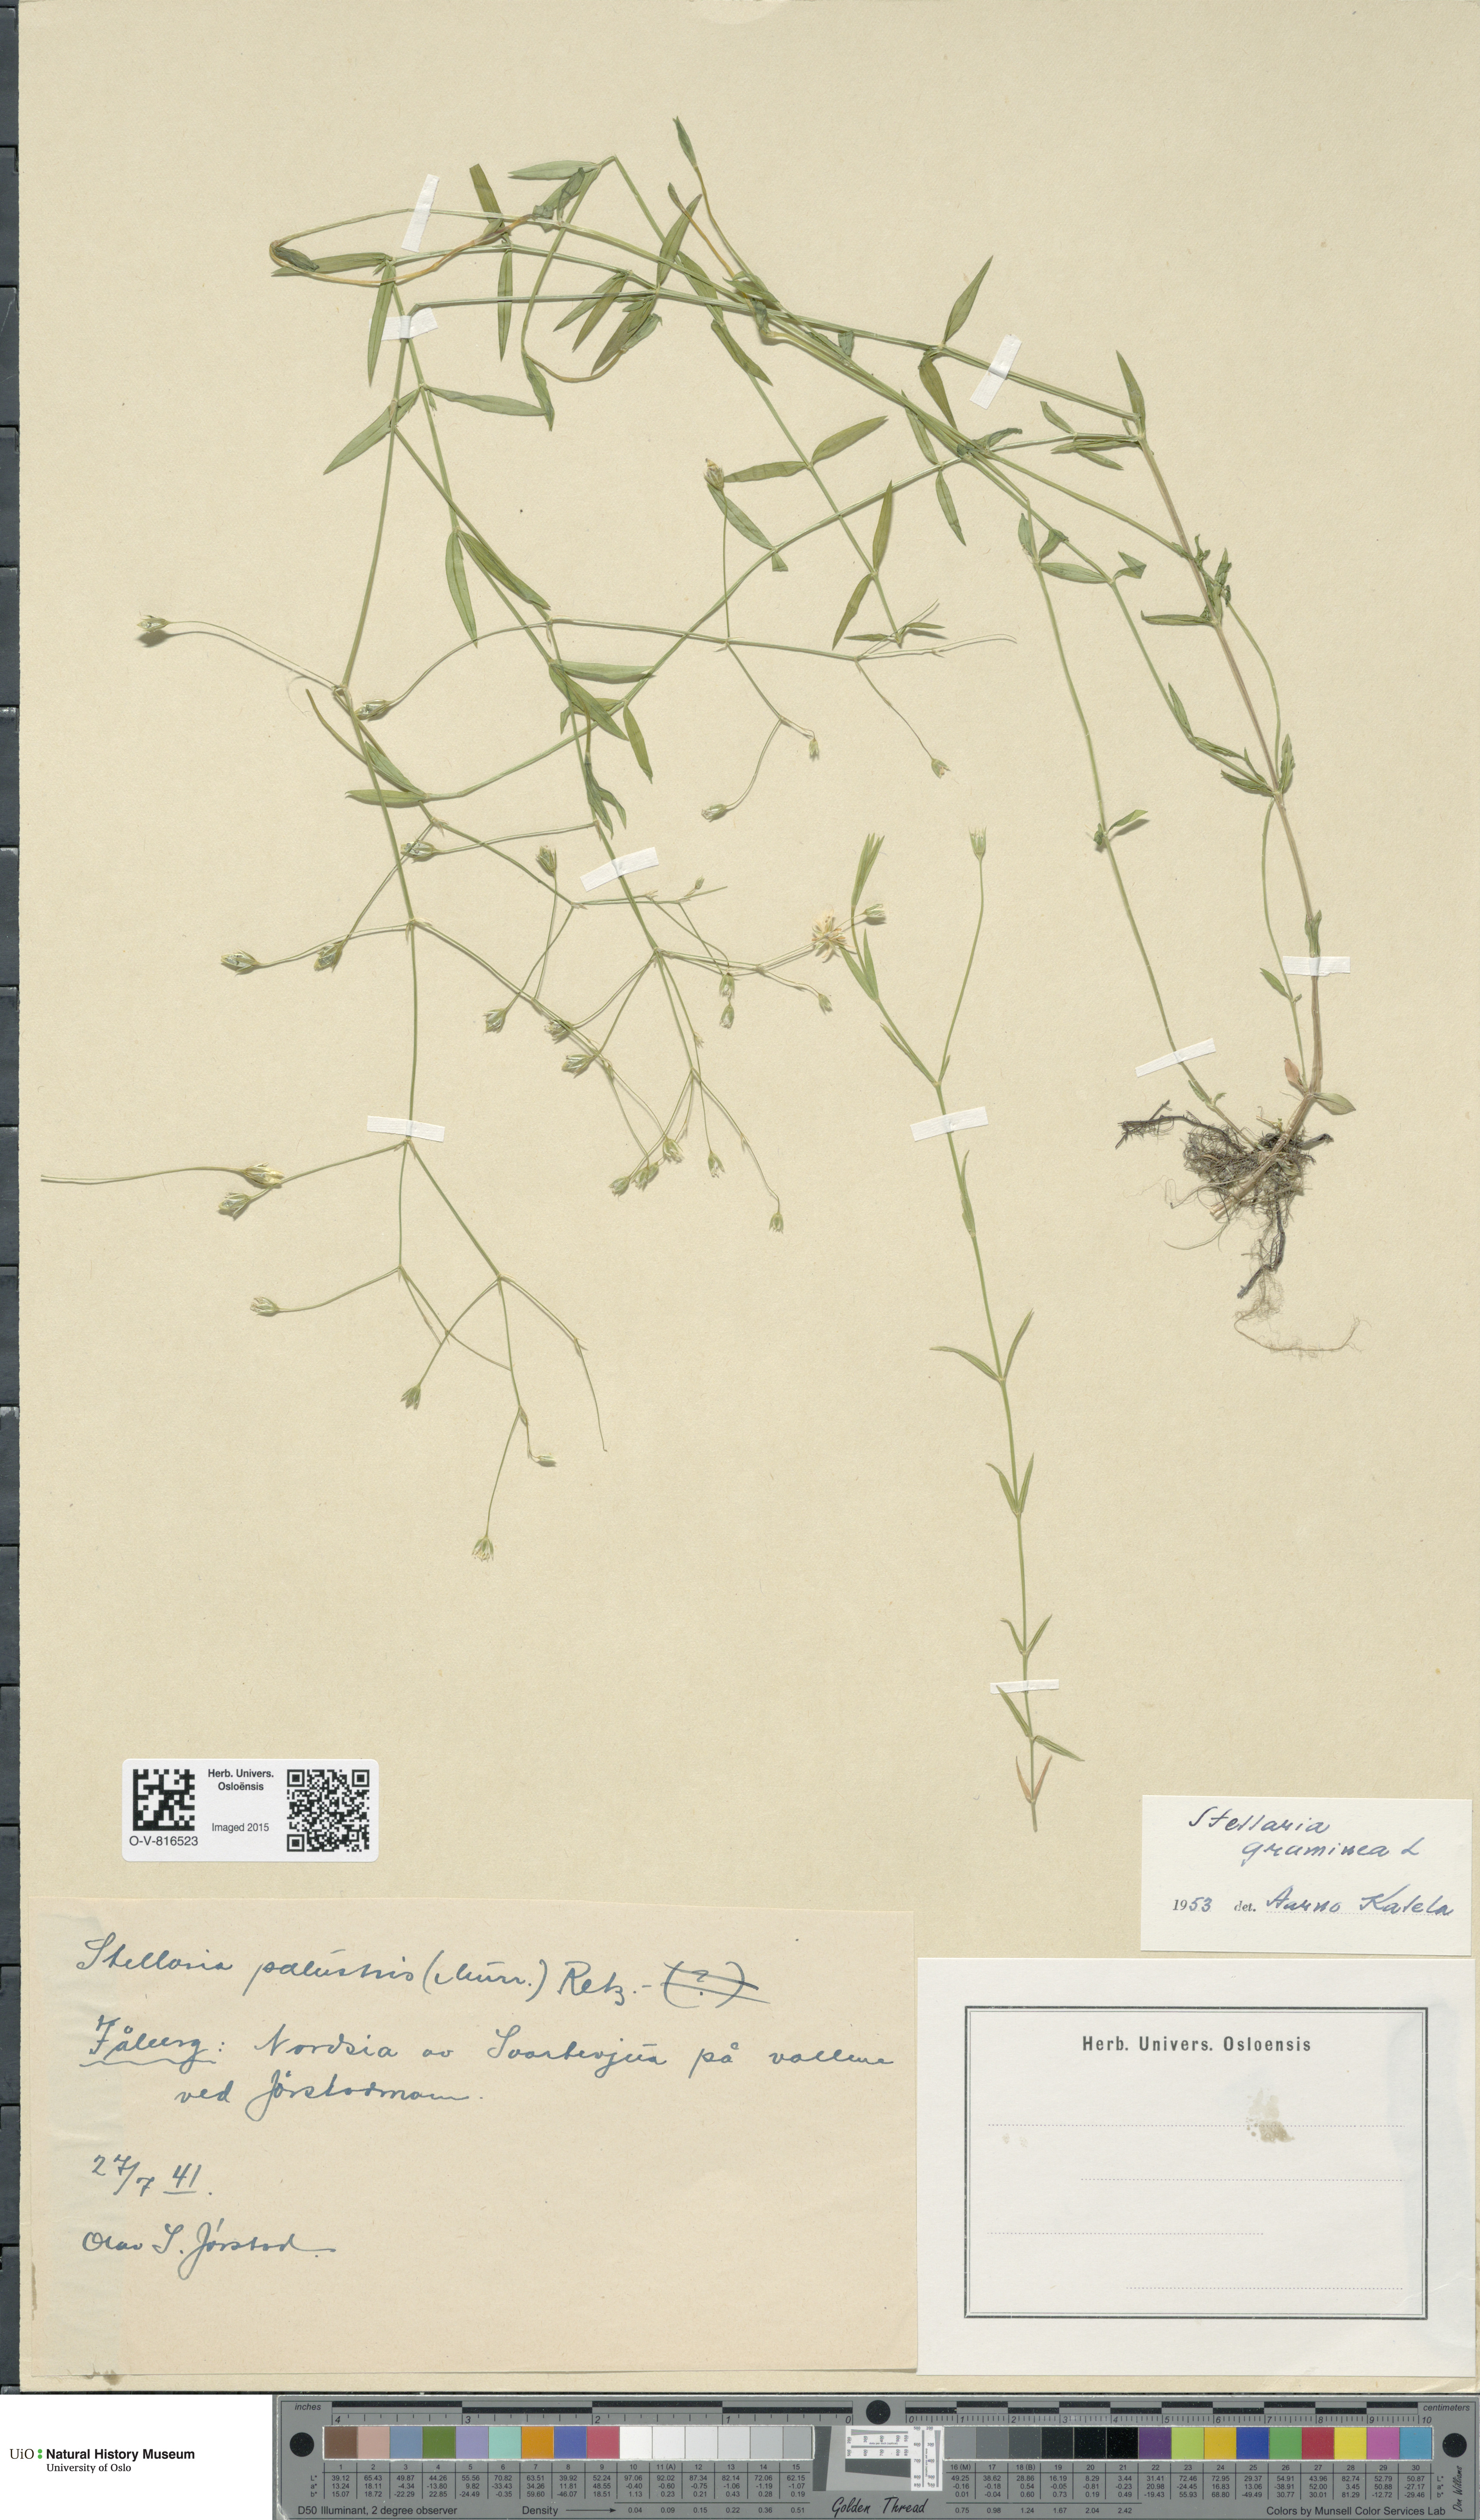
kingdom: Plantae
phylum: Tracheophyta
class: Magnoliopsida
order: Caryophyllales
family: Caryophyllaceae
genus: Stellaria
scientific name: Stellaria graminea
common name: Grass-like starwort
